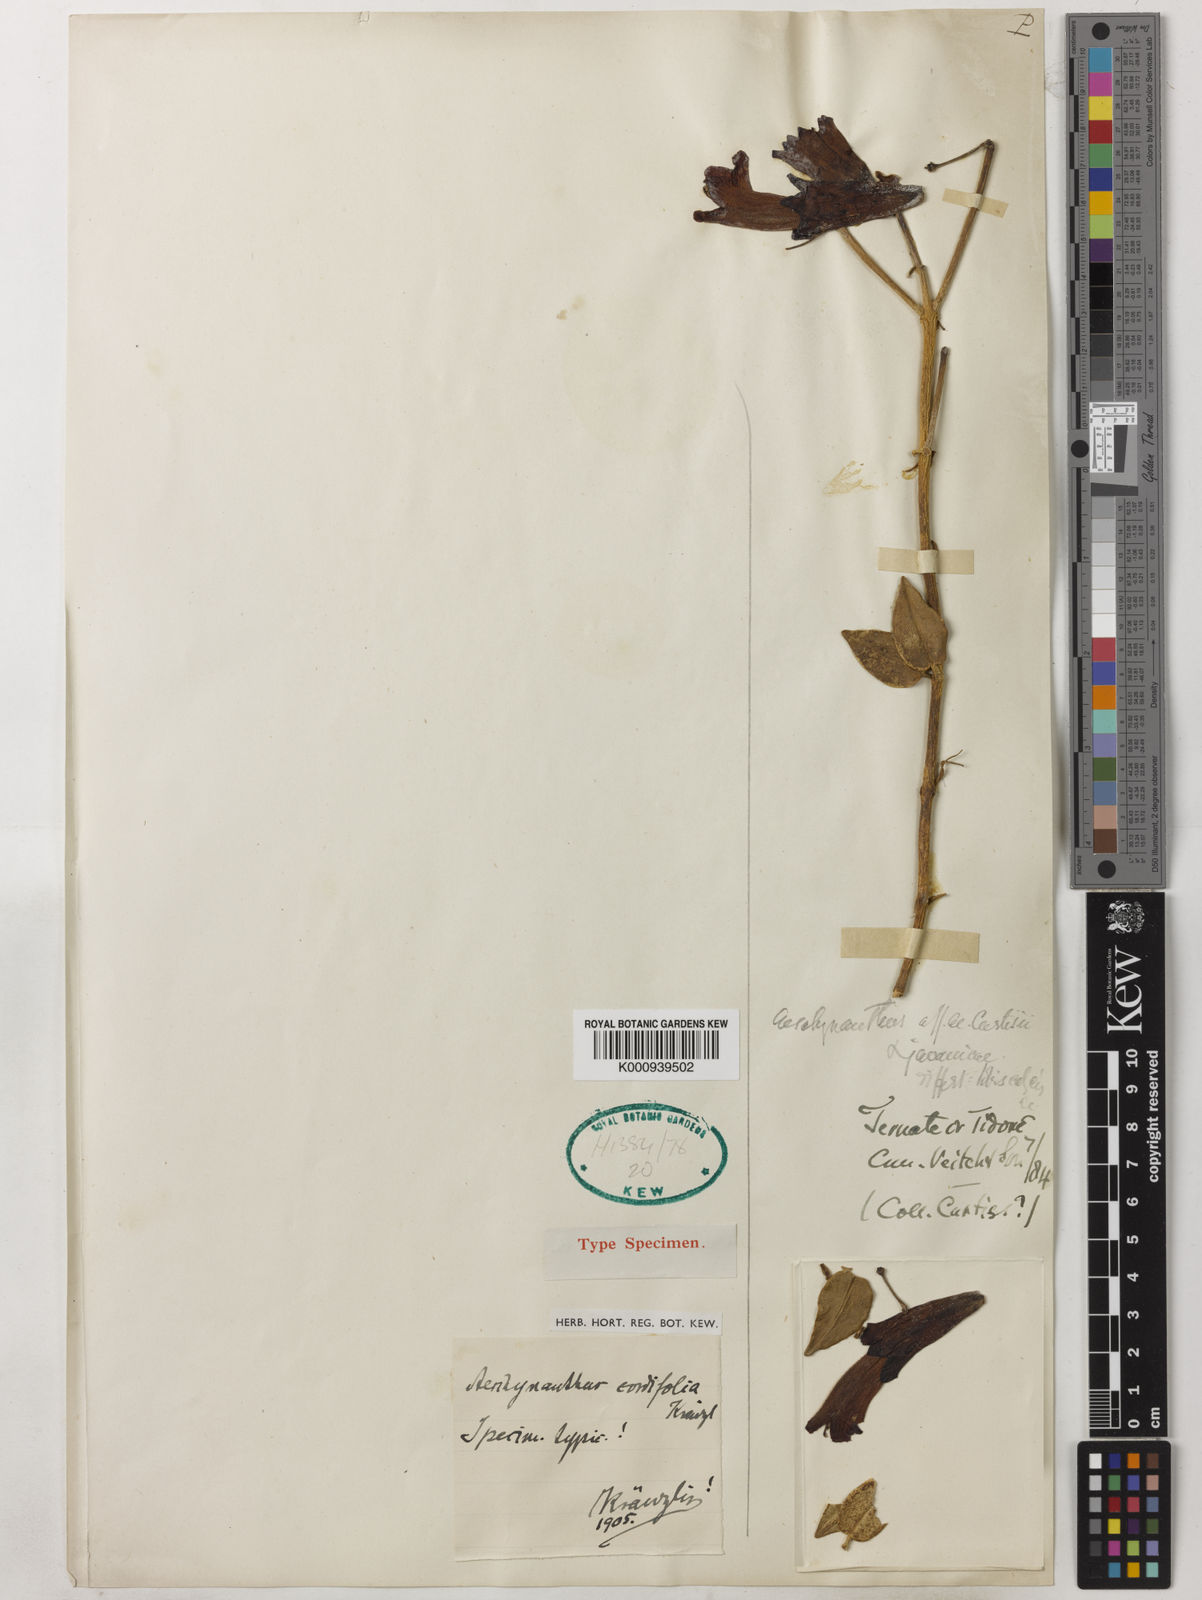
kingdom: Plantae
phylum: Tracheophyta
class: Magnoliopsida
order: Lamiales
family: Gesneriaceae
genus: Aeschynanthus
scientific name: Aeschynanthus cordifolius
